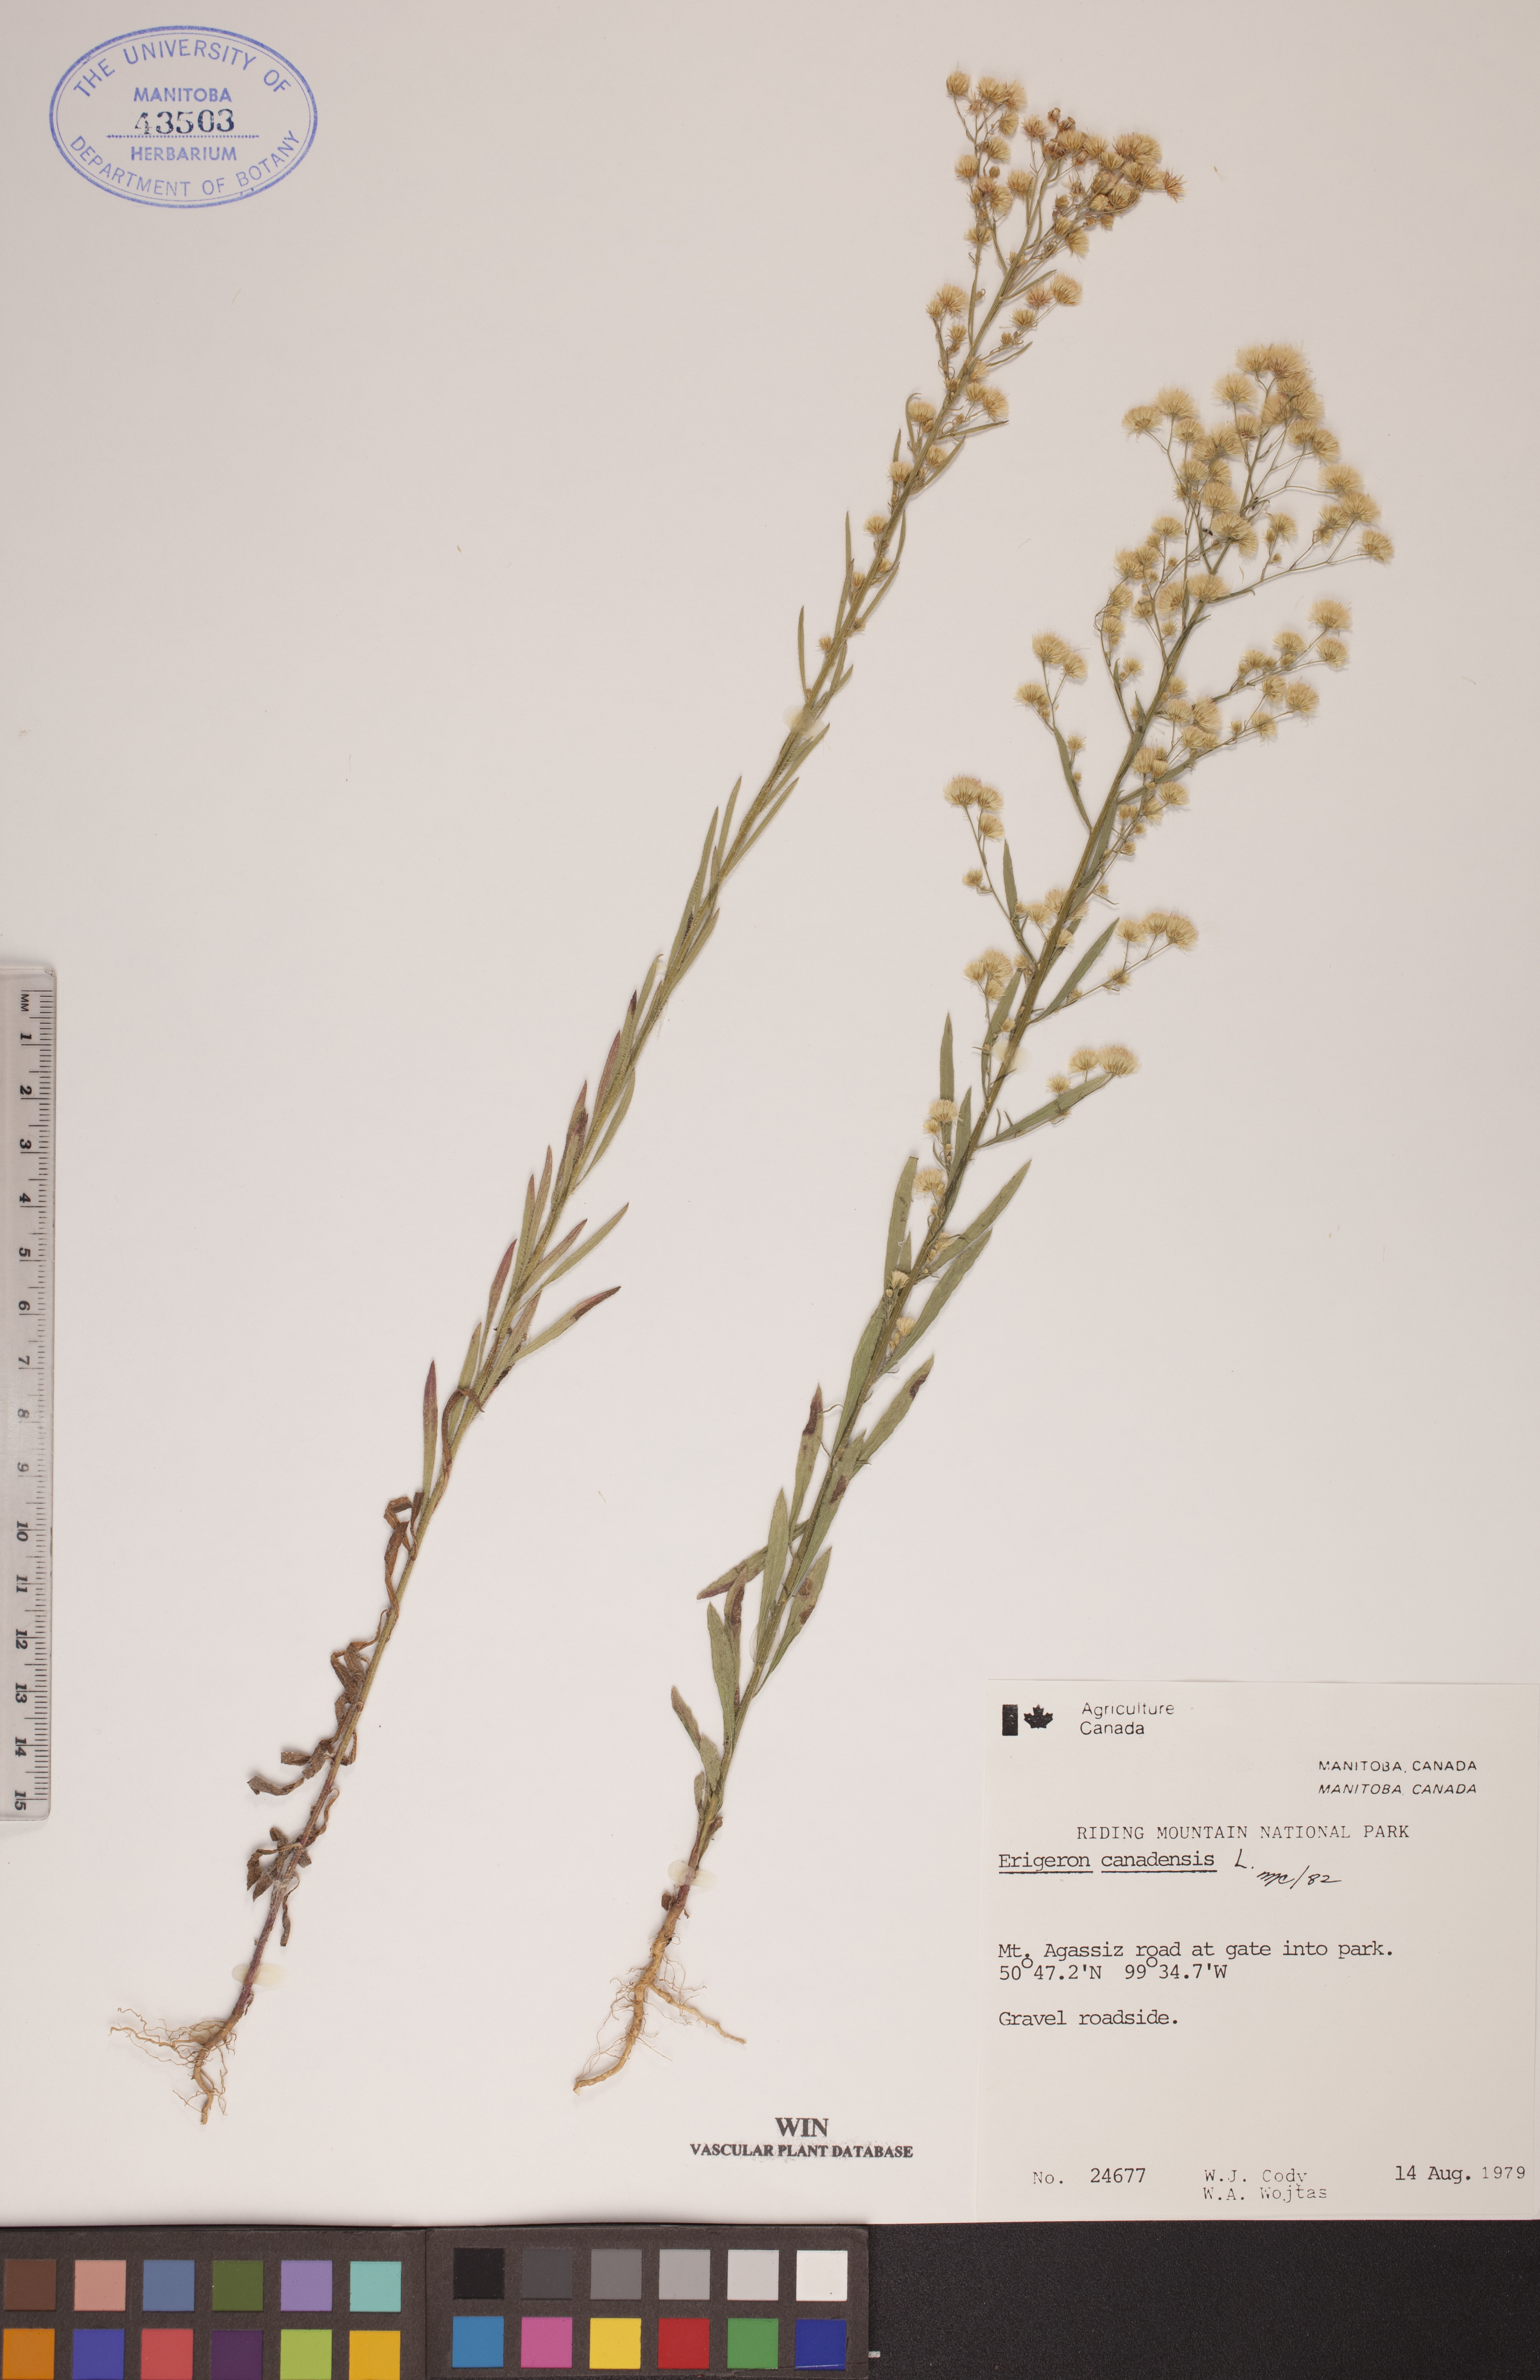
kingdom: Plantae
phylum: Tracheophyta
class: Magnoliopsida
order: Asterales
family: Asteraceae
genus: Erigeron
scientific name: Erigeron canadensis
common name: Canadian fleabane
